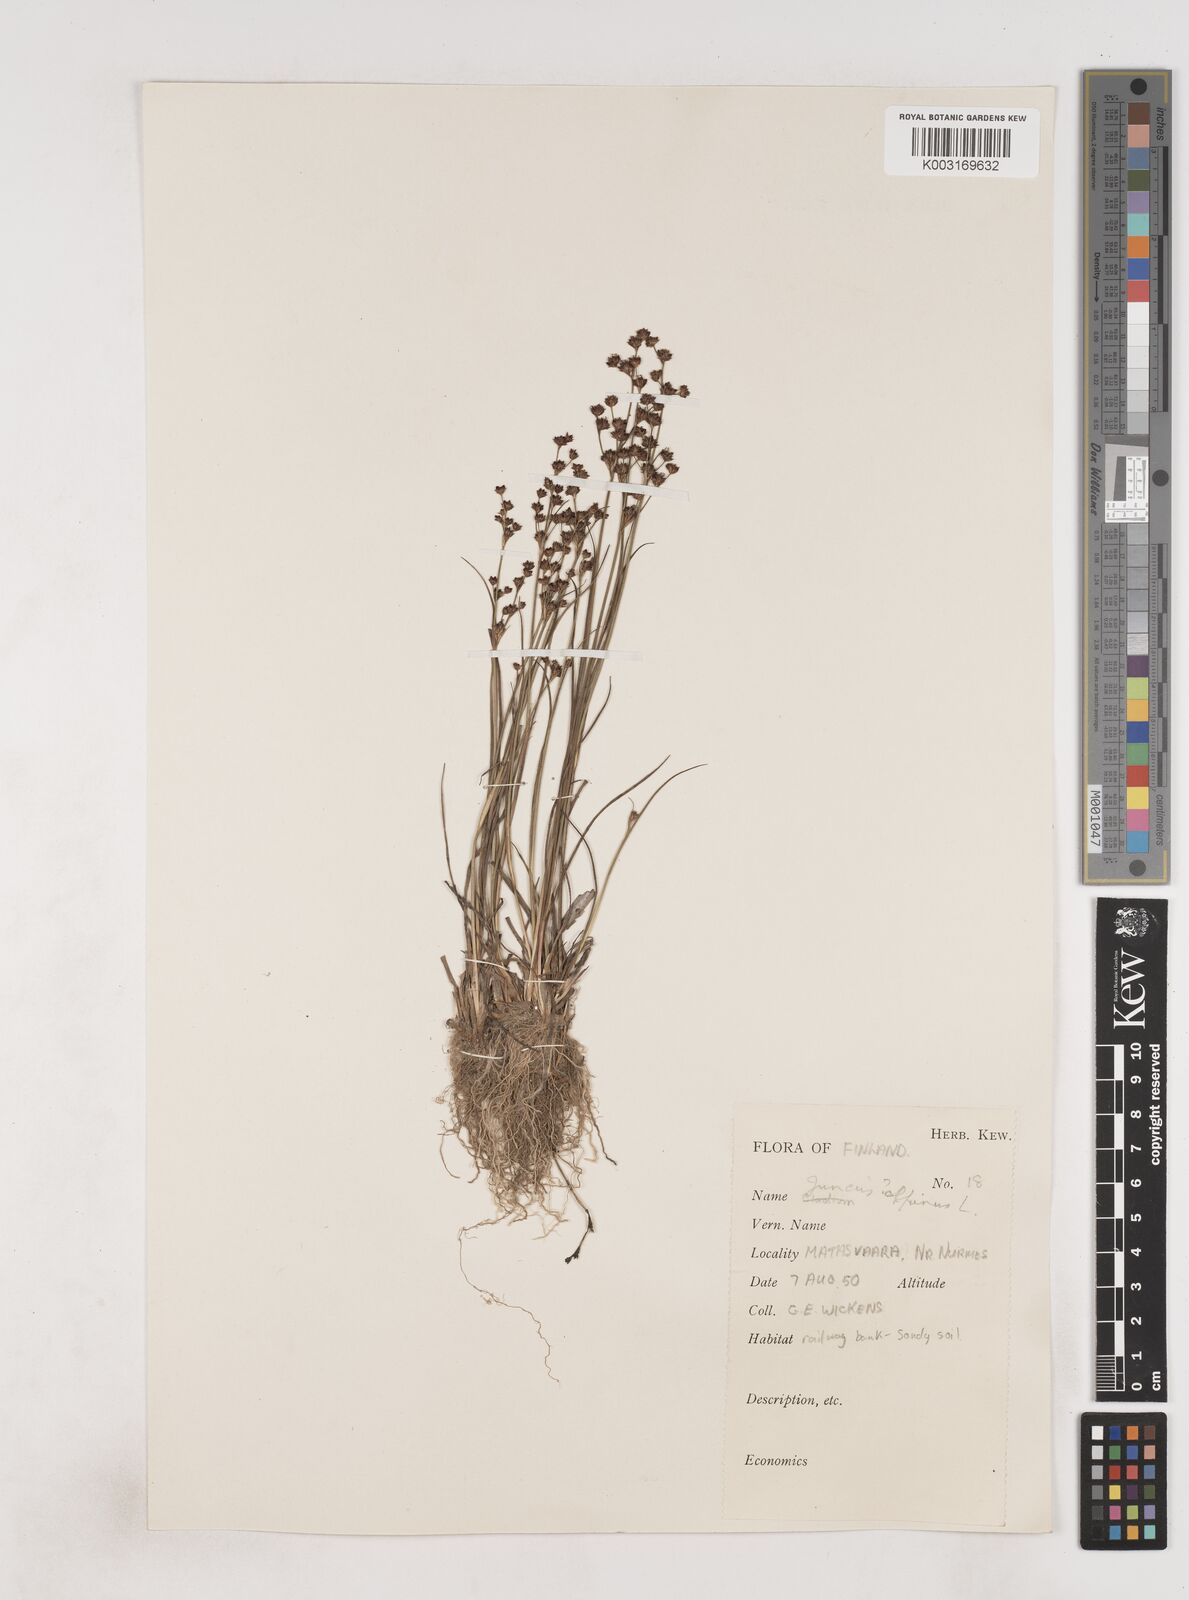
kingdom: Plantae
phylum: Tracheophyta
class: Liliopsida
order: Poales
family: Juncaceae
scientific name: Juncaceae
